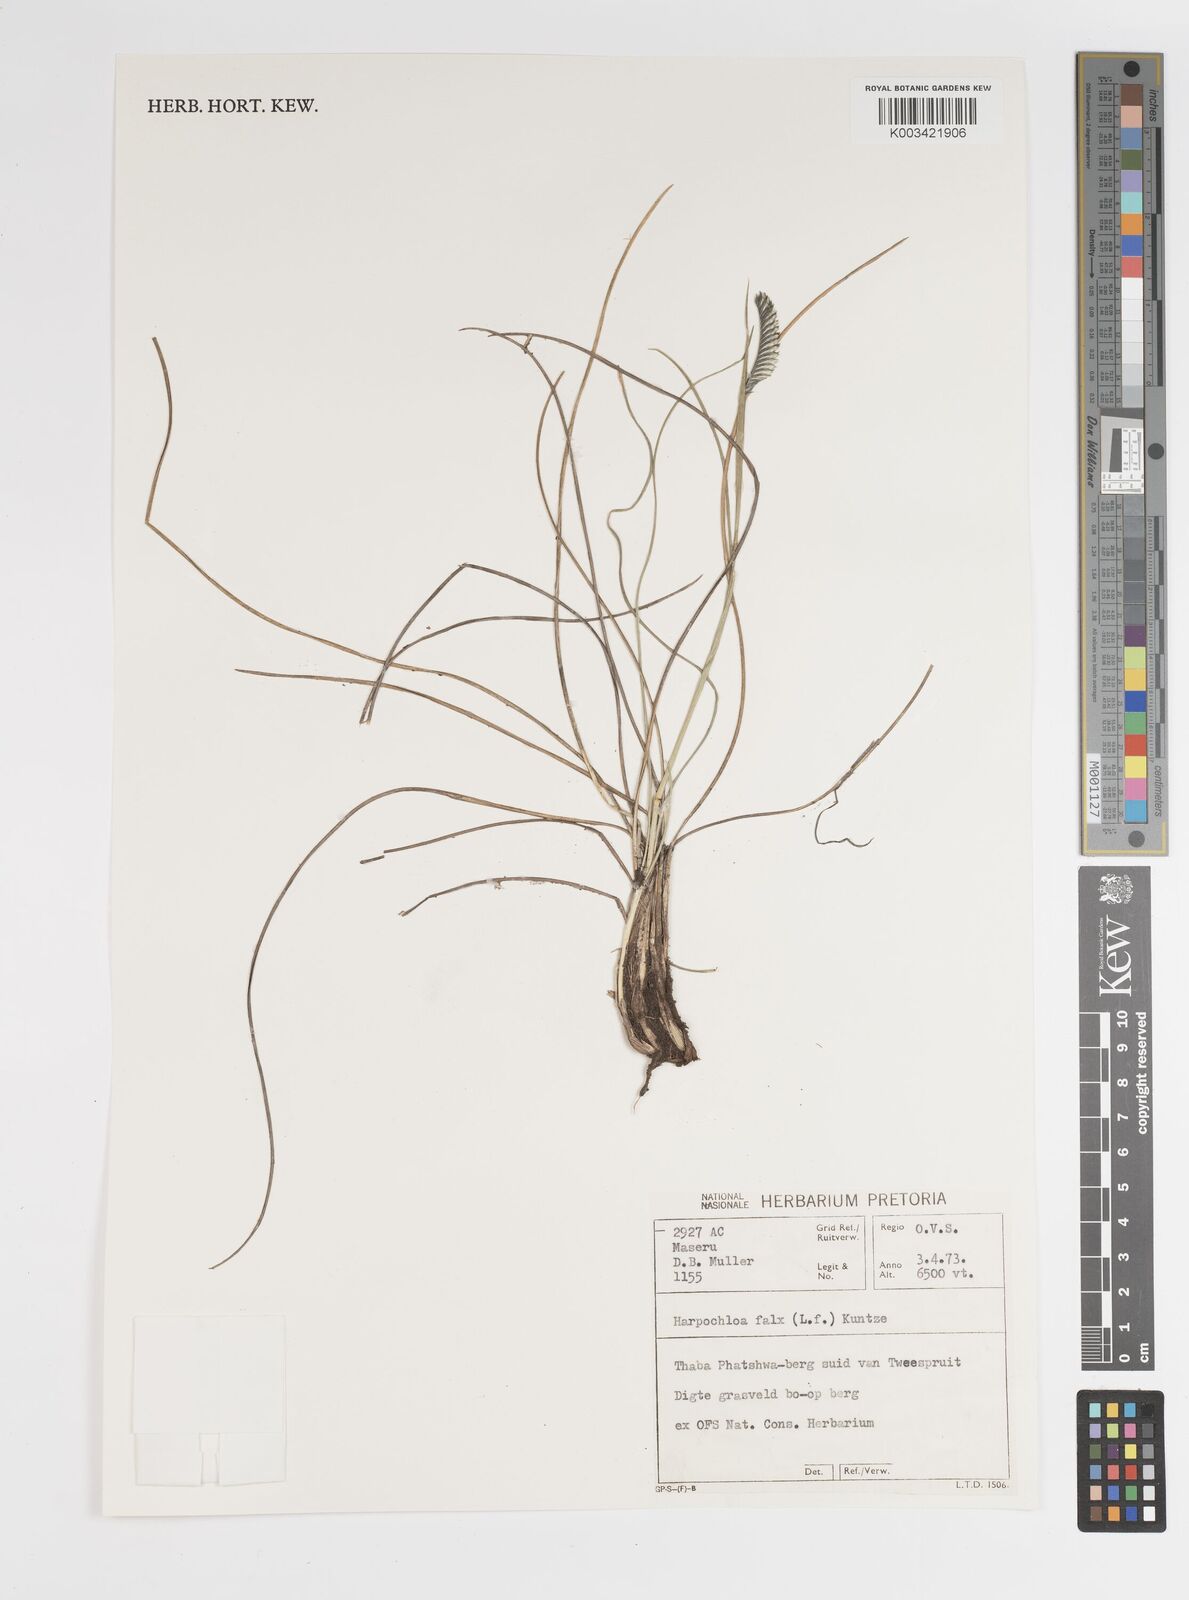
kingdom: Plantae
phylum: Tracheophyta
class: Liliopsida
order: Poales
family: Poaceae
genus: Harpochloa
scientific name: Harpochloa falx
